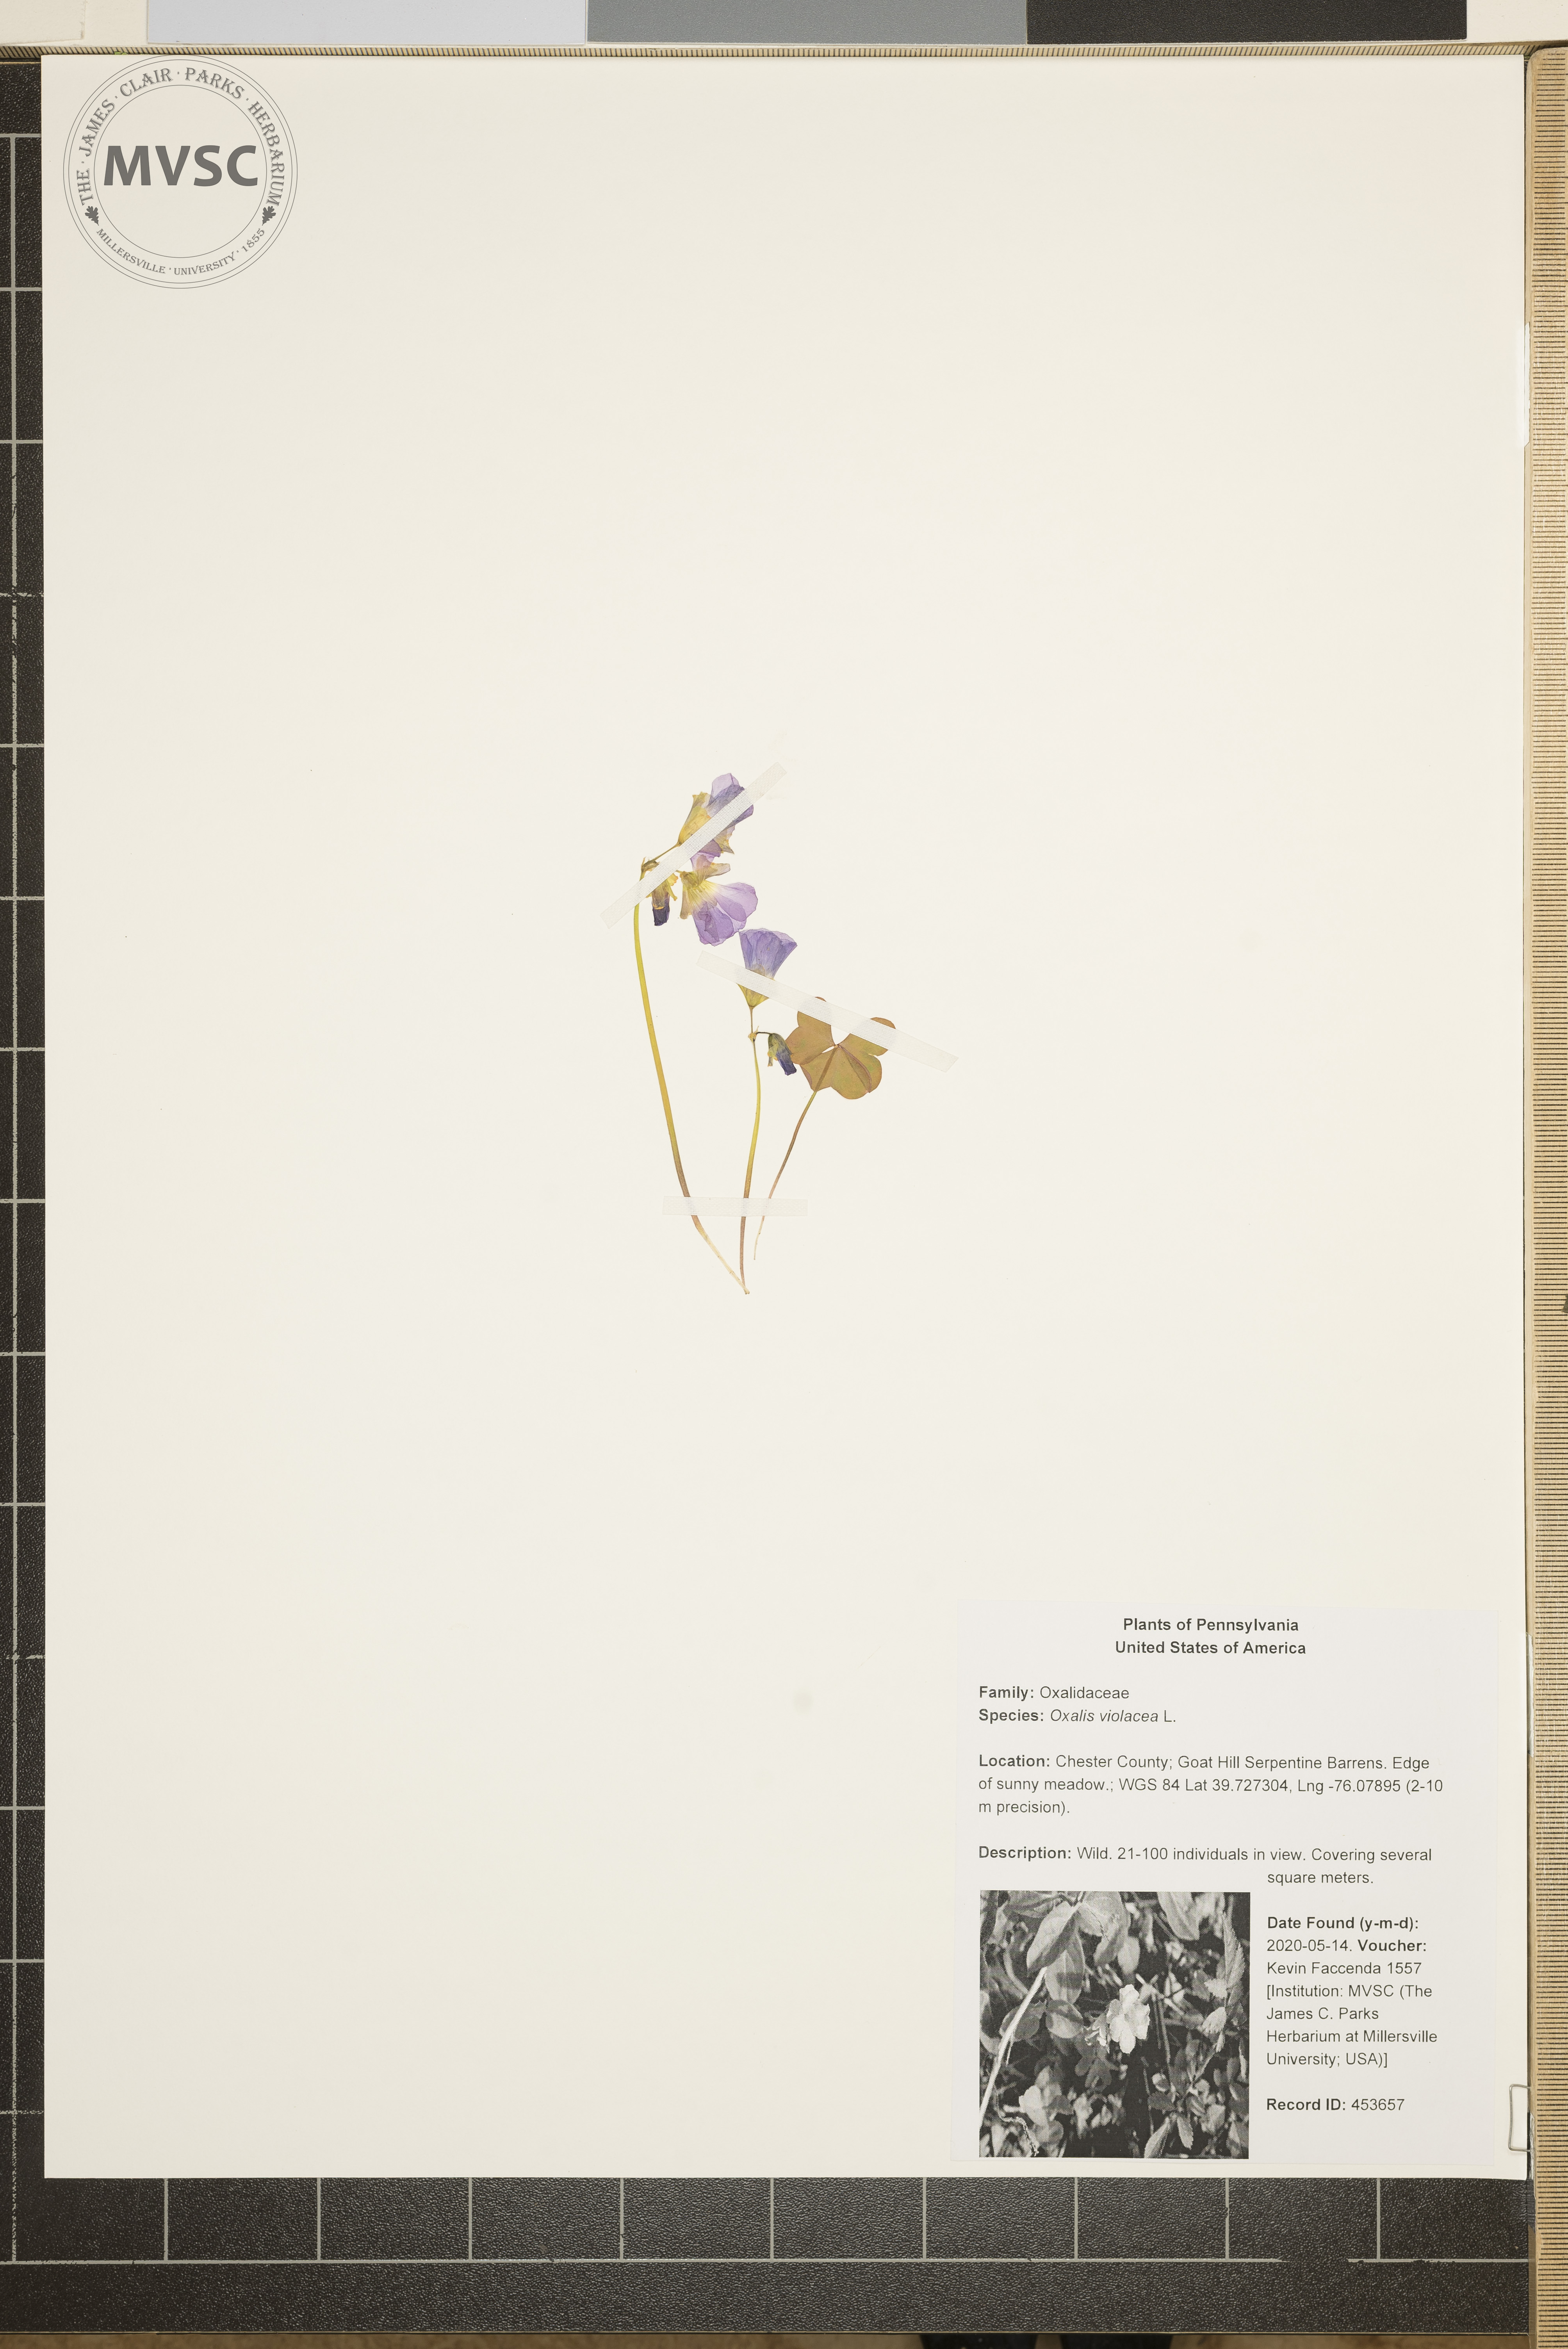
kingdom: Plantae
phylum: Tracheophyta
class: Magnoliopsida
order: Oxalidales
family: Oxalidaceae
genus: Oxalis
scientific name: Oxalis violacea
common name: Violet wood-sorrel
